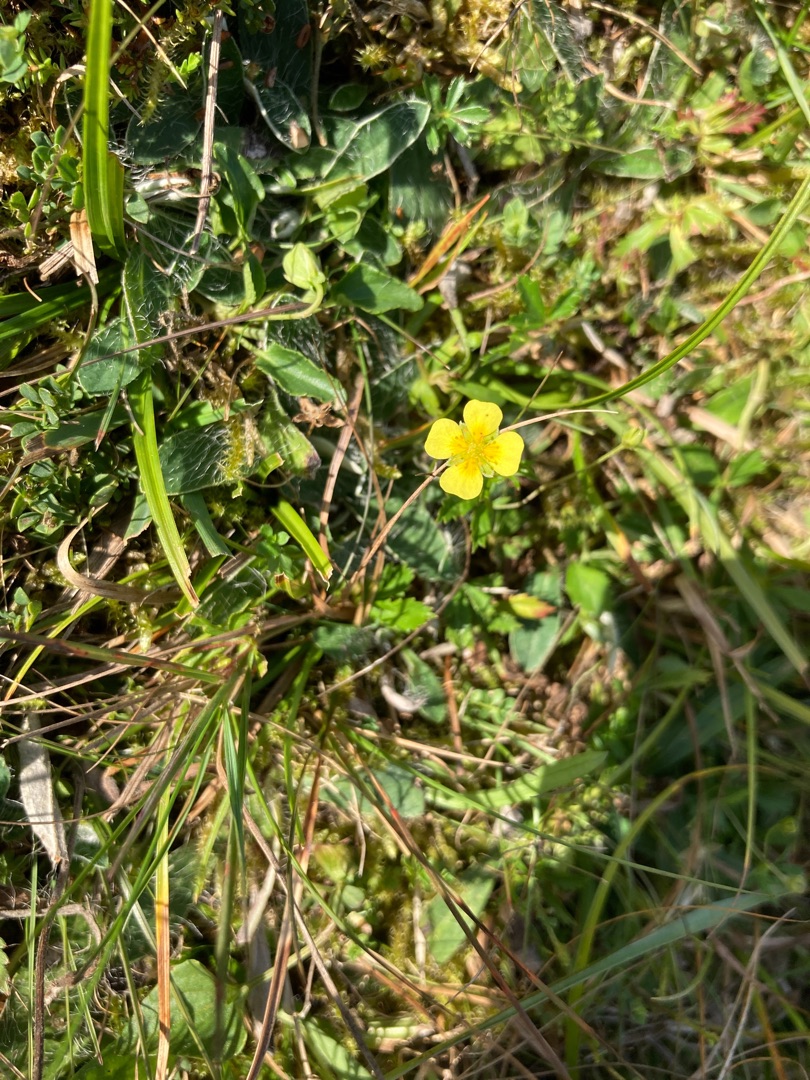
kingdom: Plantae
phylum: Tracheophyta
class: Magnoliopsida
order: Rosales
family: Rosaceae
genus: Potentilla
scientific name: Potentilla erecta
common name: Tormentil
